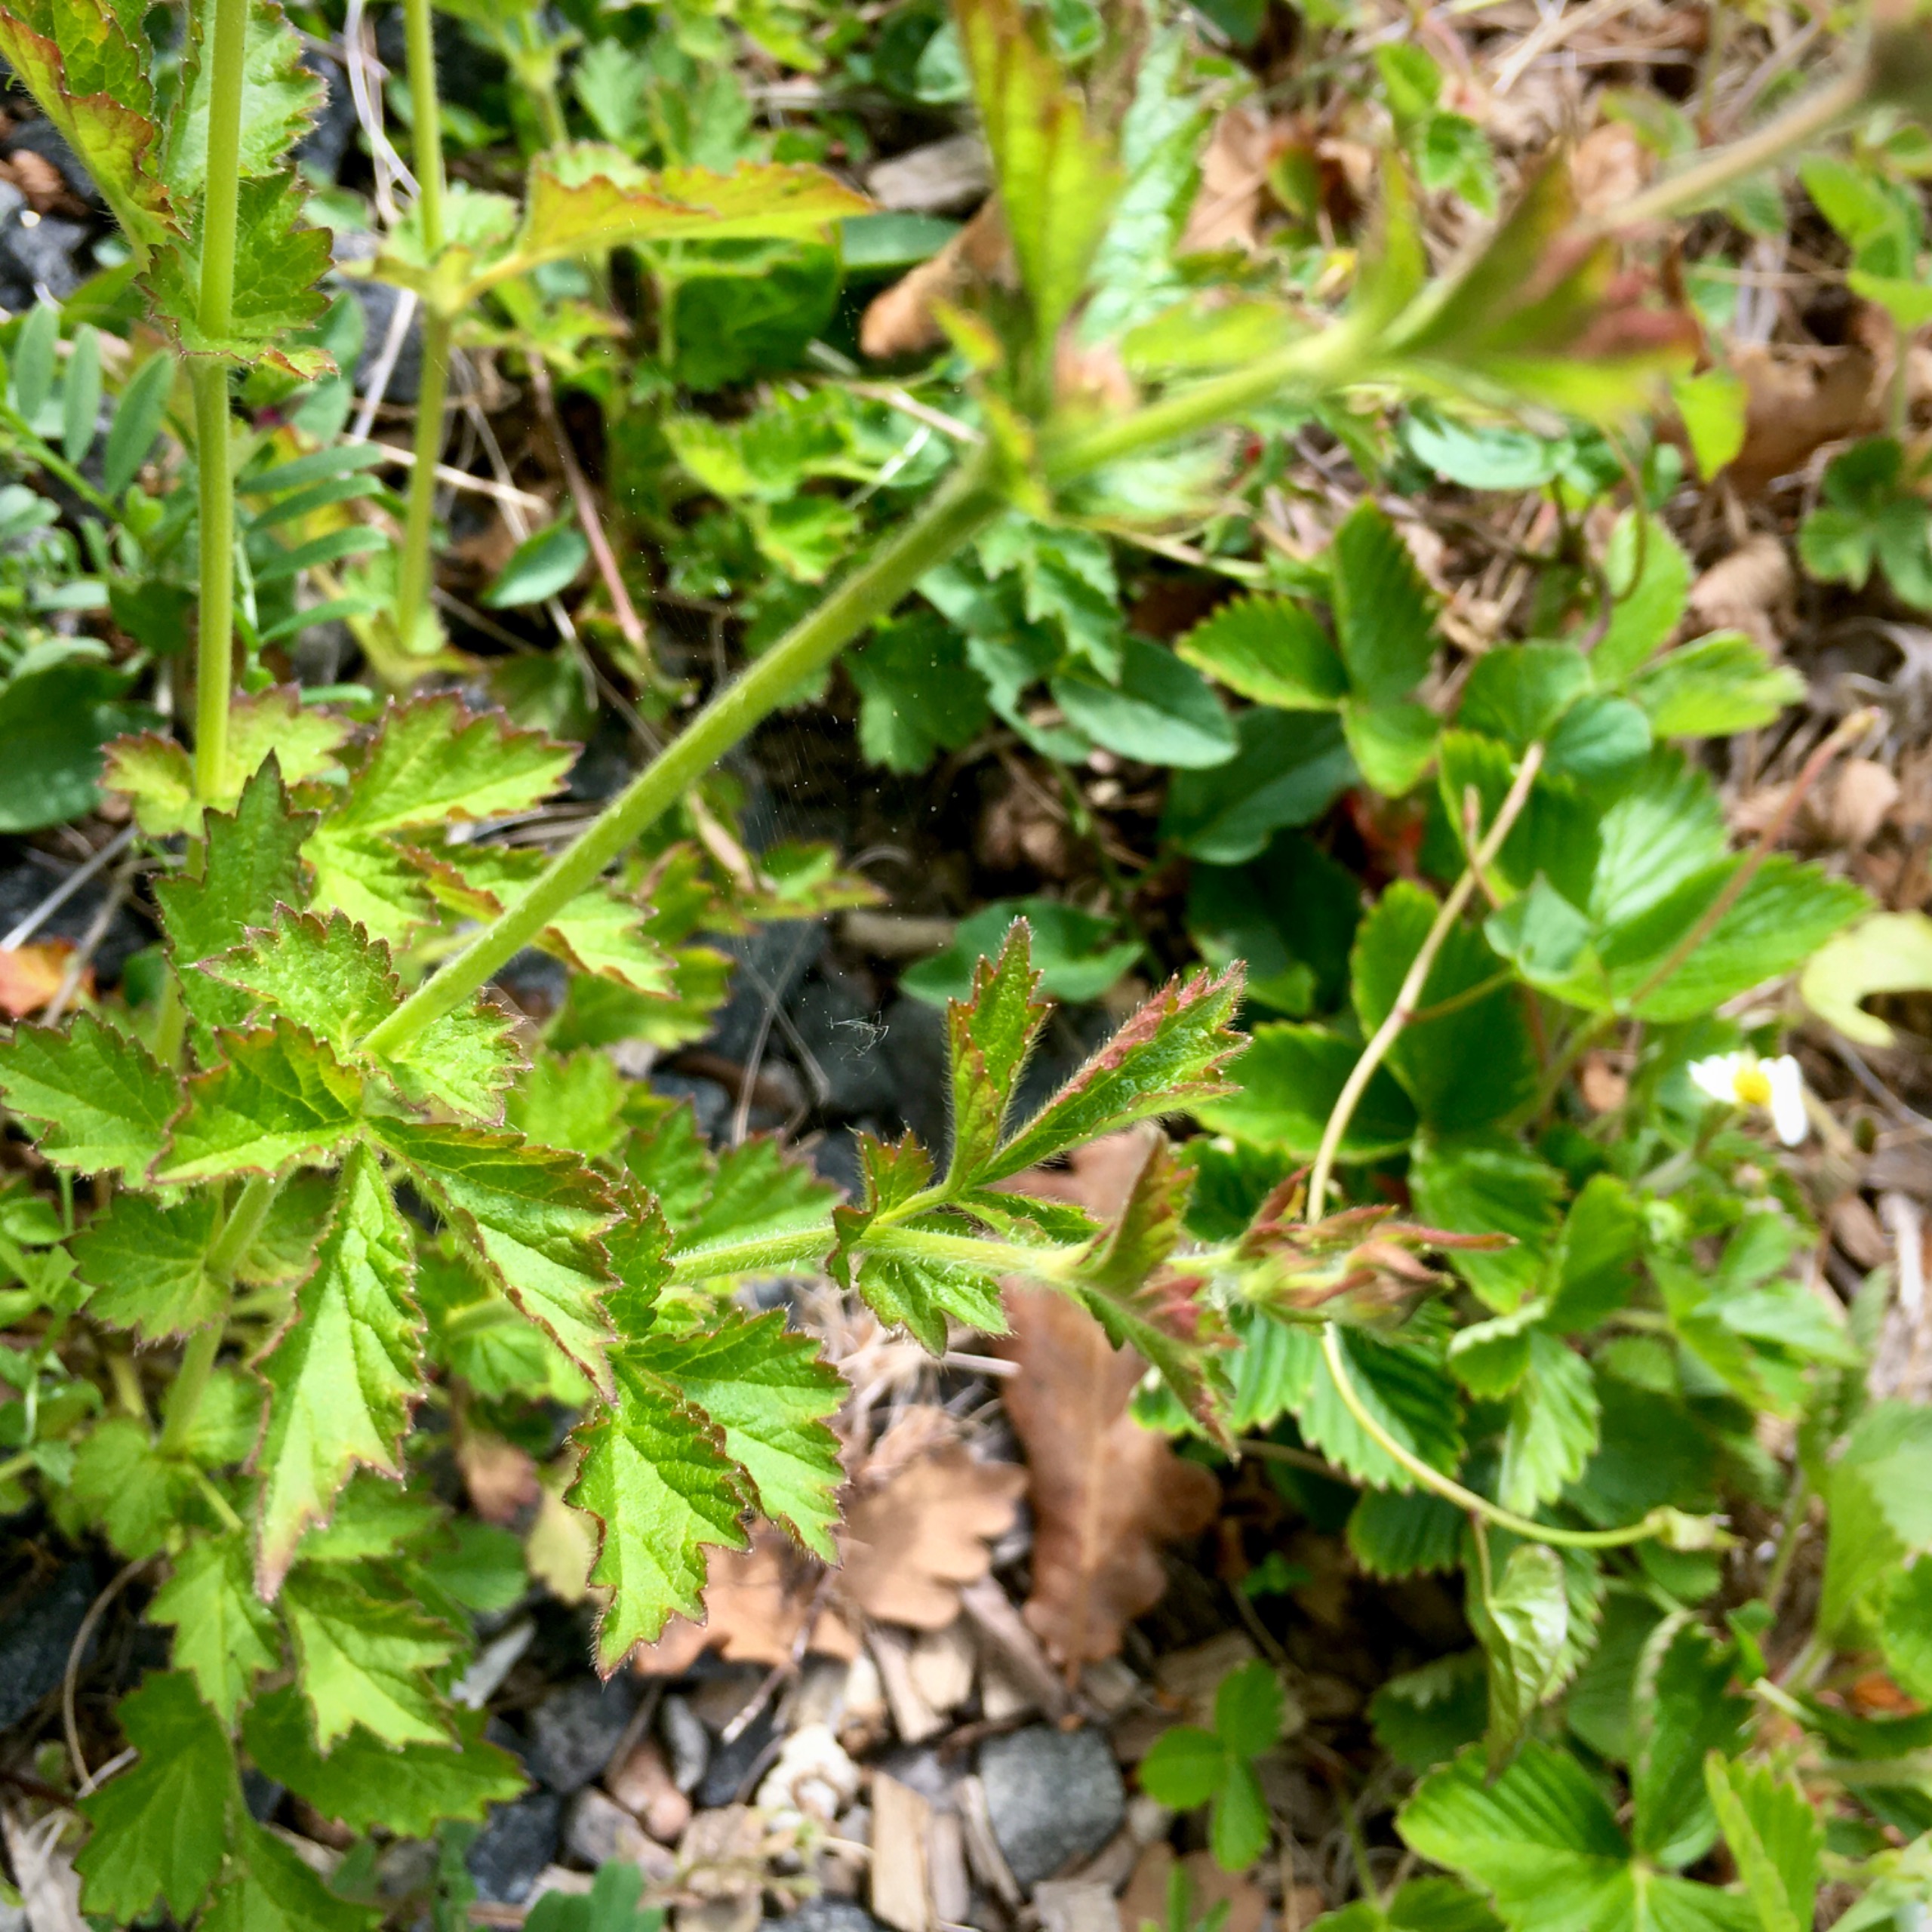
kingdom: Plantae
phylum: Tracheophyta
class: Magnoliopsida
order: Rosales
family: Rosaceae
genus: Geum
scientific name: Geum urbanum
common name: Feber-nellikerod
